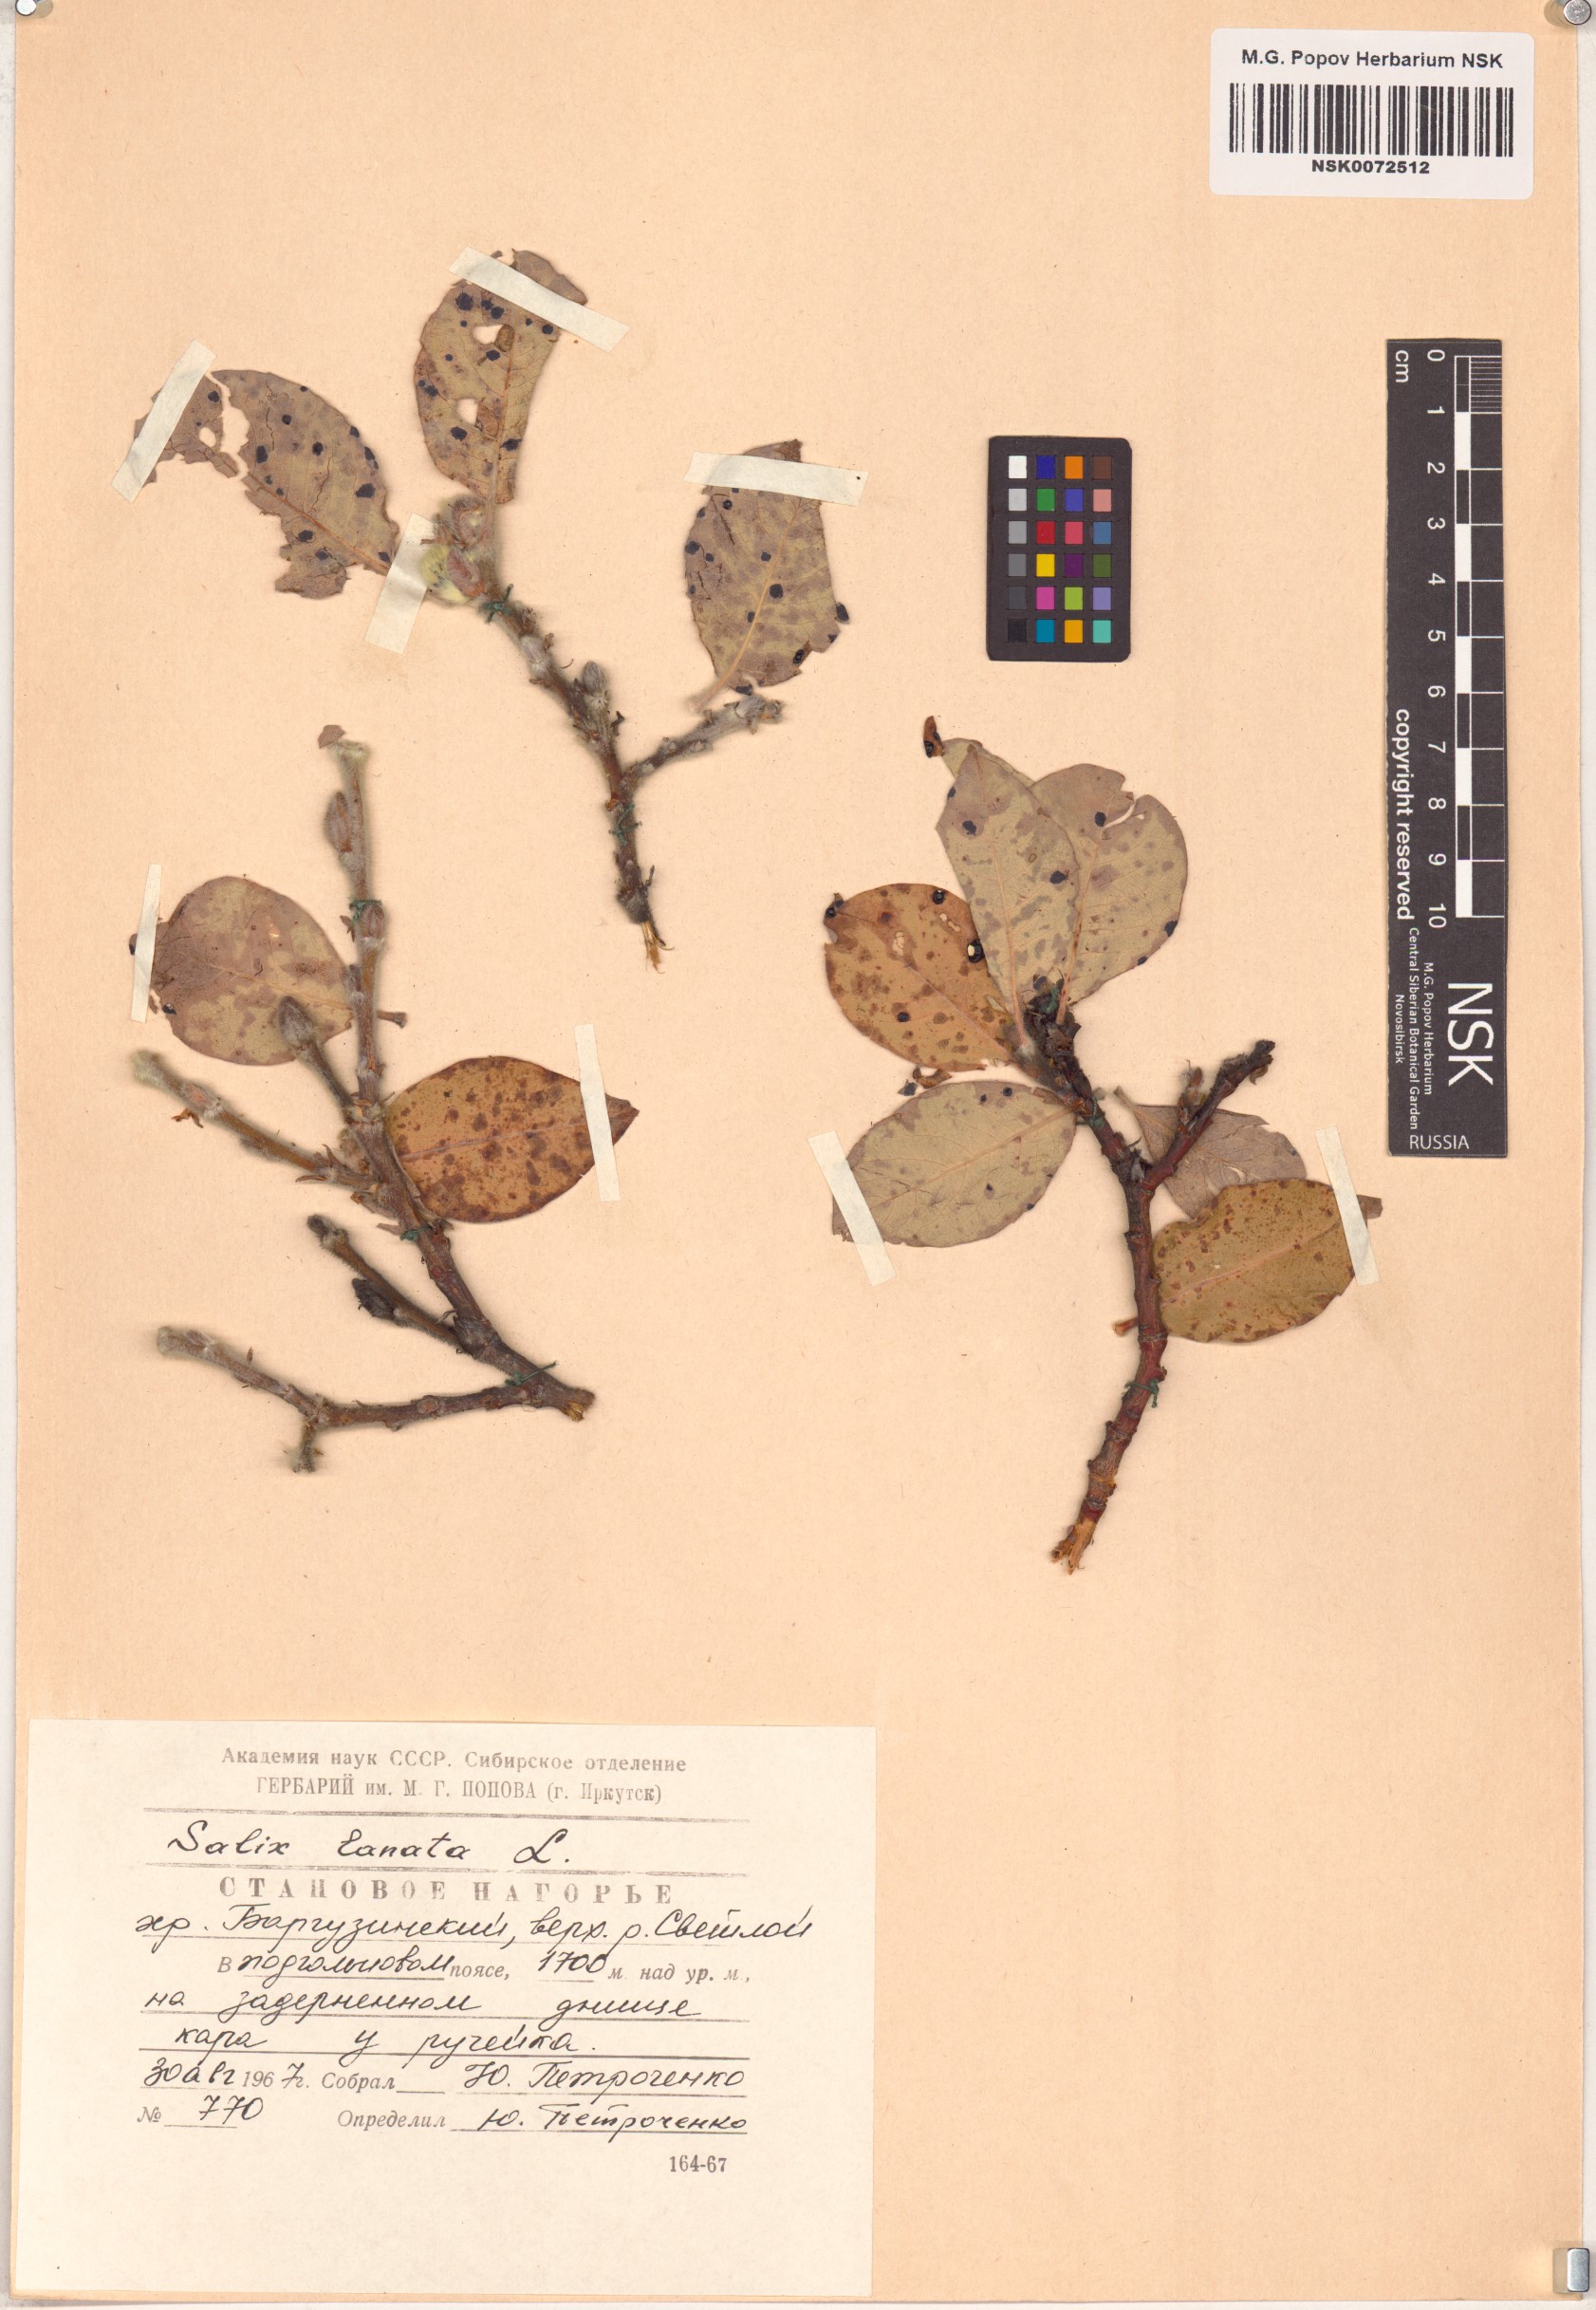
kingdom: Plantae
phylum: Tracheophyta
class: Magnoliopsida
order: Malpighiales
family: Salicaceae
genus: Salix
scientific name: Salix lanata
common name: Woolly willow
